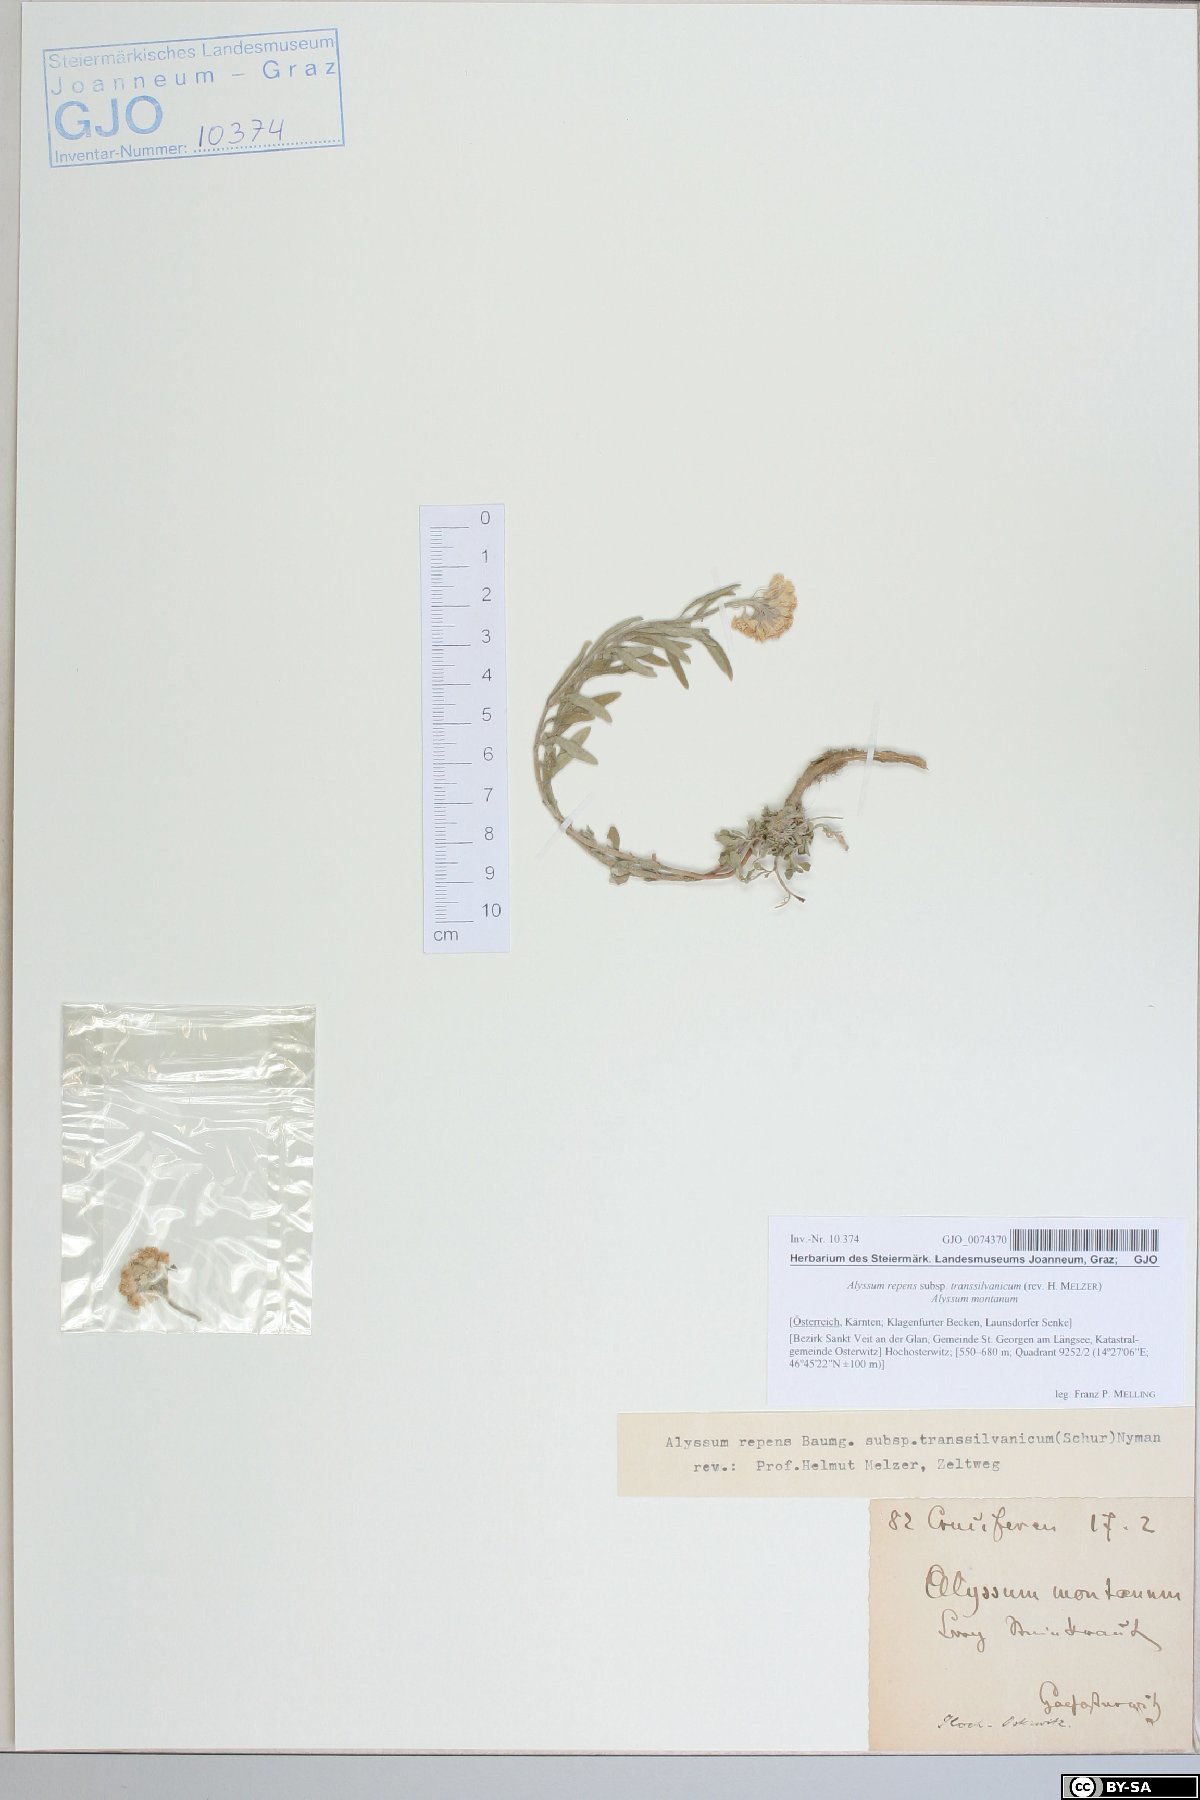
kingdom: Plantae
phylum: Tracheophyta
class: Magnoliopsida
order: Brassicales
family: Brassicaceae
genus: Alyssum
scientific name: Alyssum repens
